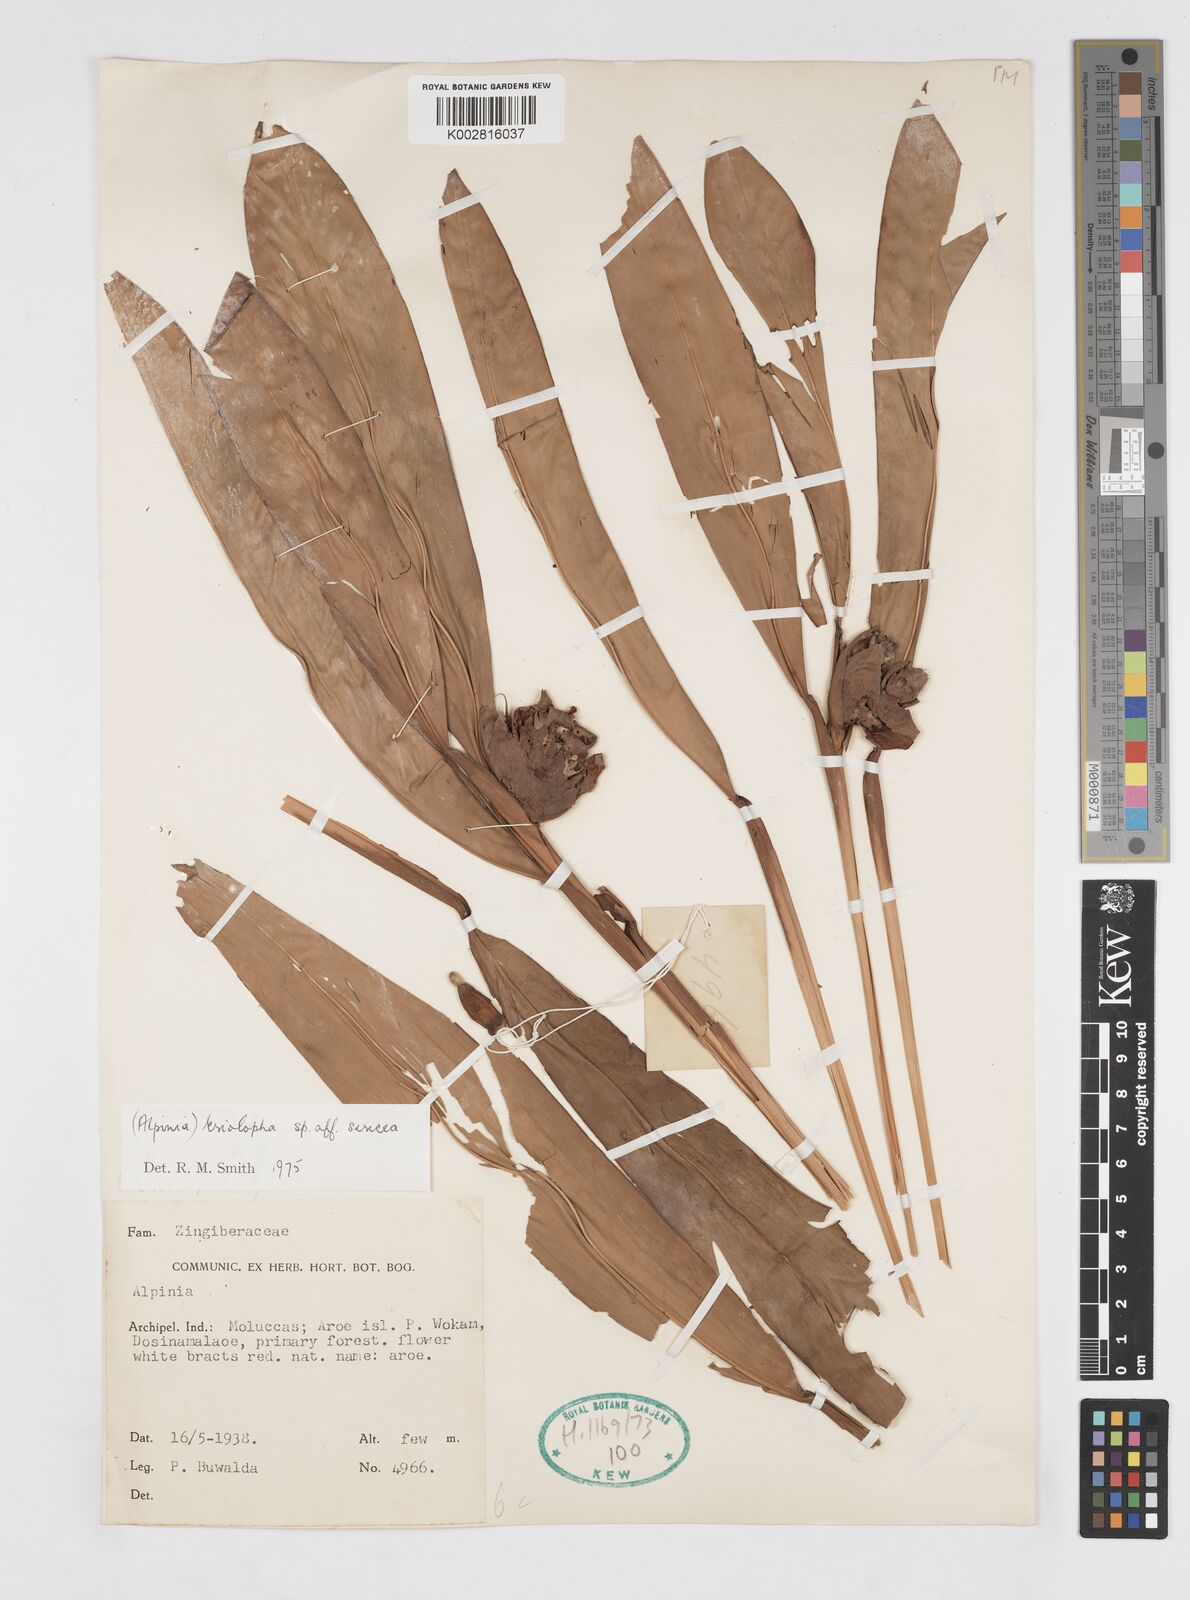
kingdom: Plantae
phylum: Tracheophyta
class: Liliopsida
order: Zingiberales
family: Zingiberaceae
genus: Alpinia
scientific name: Alpinia latilabris
